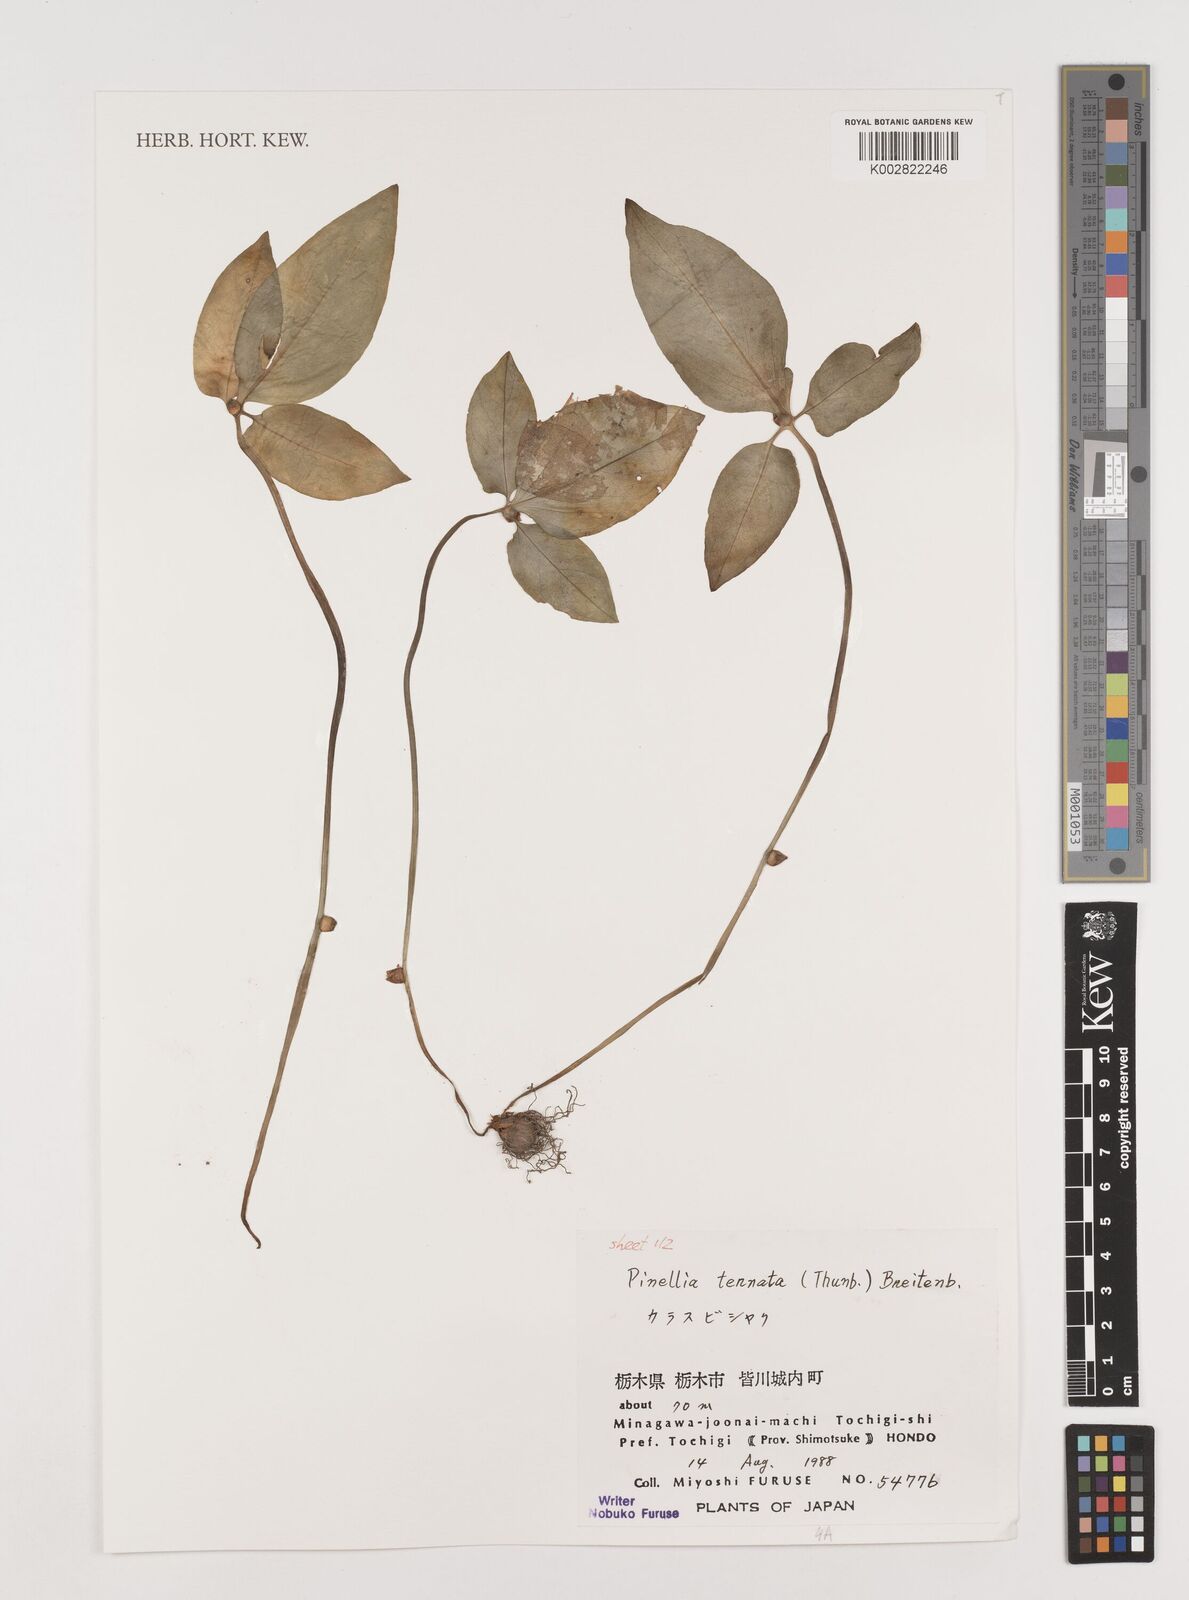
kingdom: Plantae
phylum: Tracheophyta
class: Liliopsida
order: Alismatales
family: Araceae
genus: Pinellia
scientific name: Pinellia ternata
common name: Pinellia
